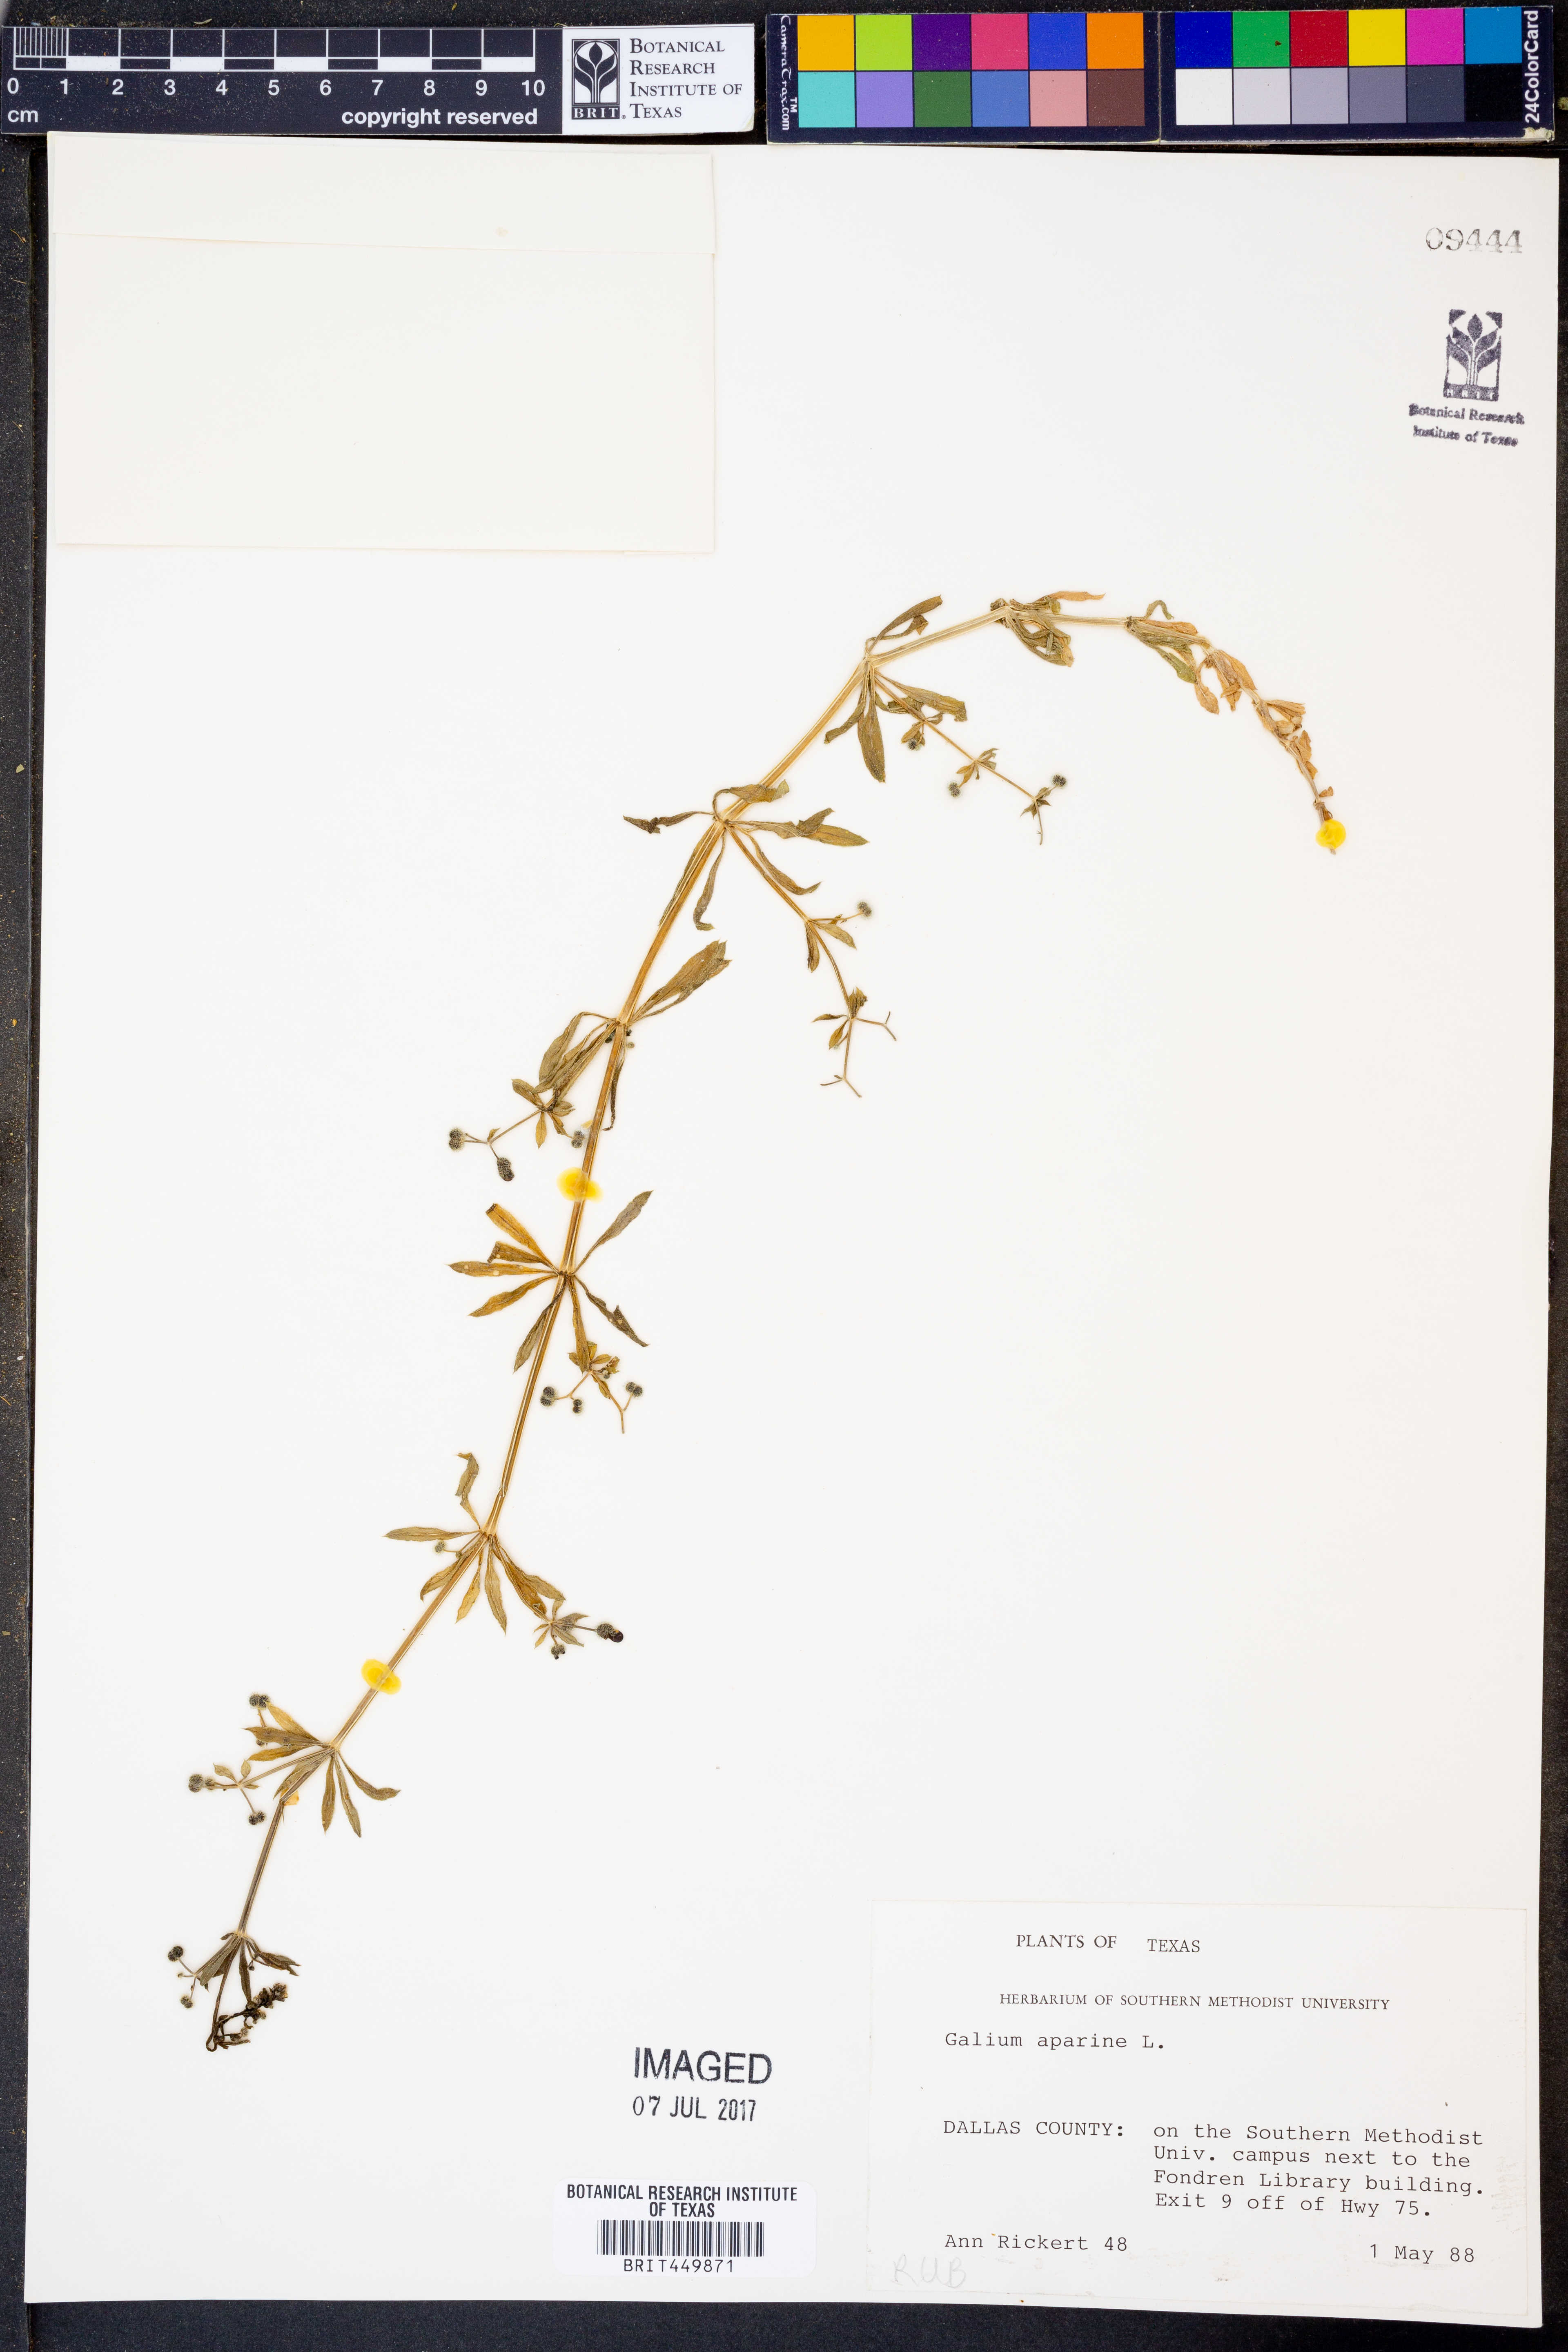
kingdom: Plantae
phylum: Tracheophyta
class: Magnoliopsida
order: Gentianales
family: Rubiaceae
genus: Galium
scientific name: Galium aparine
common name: Cleavers
